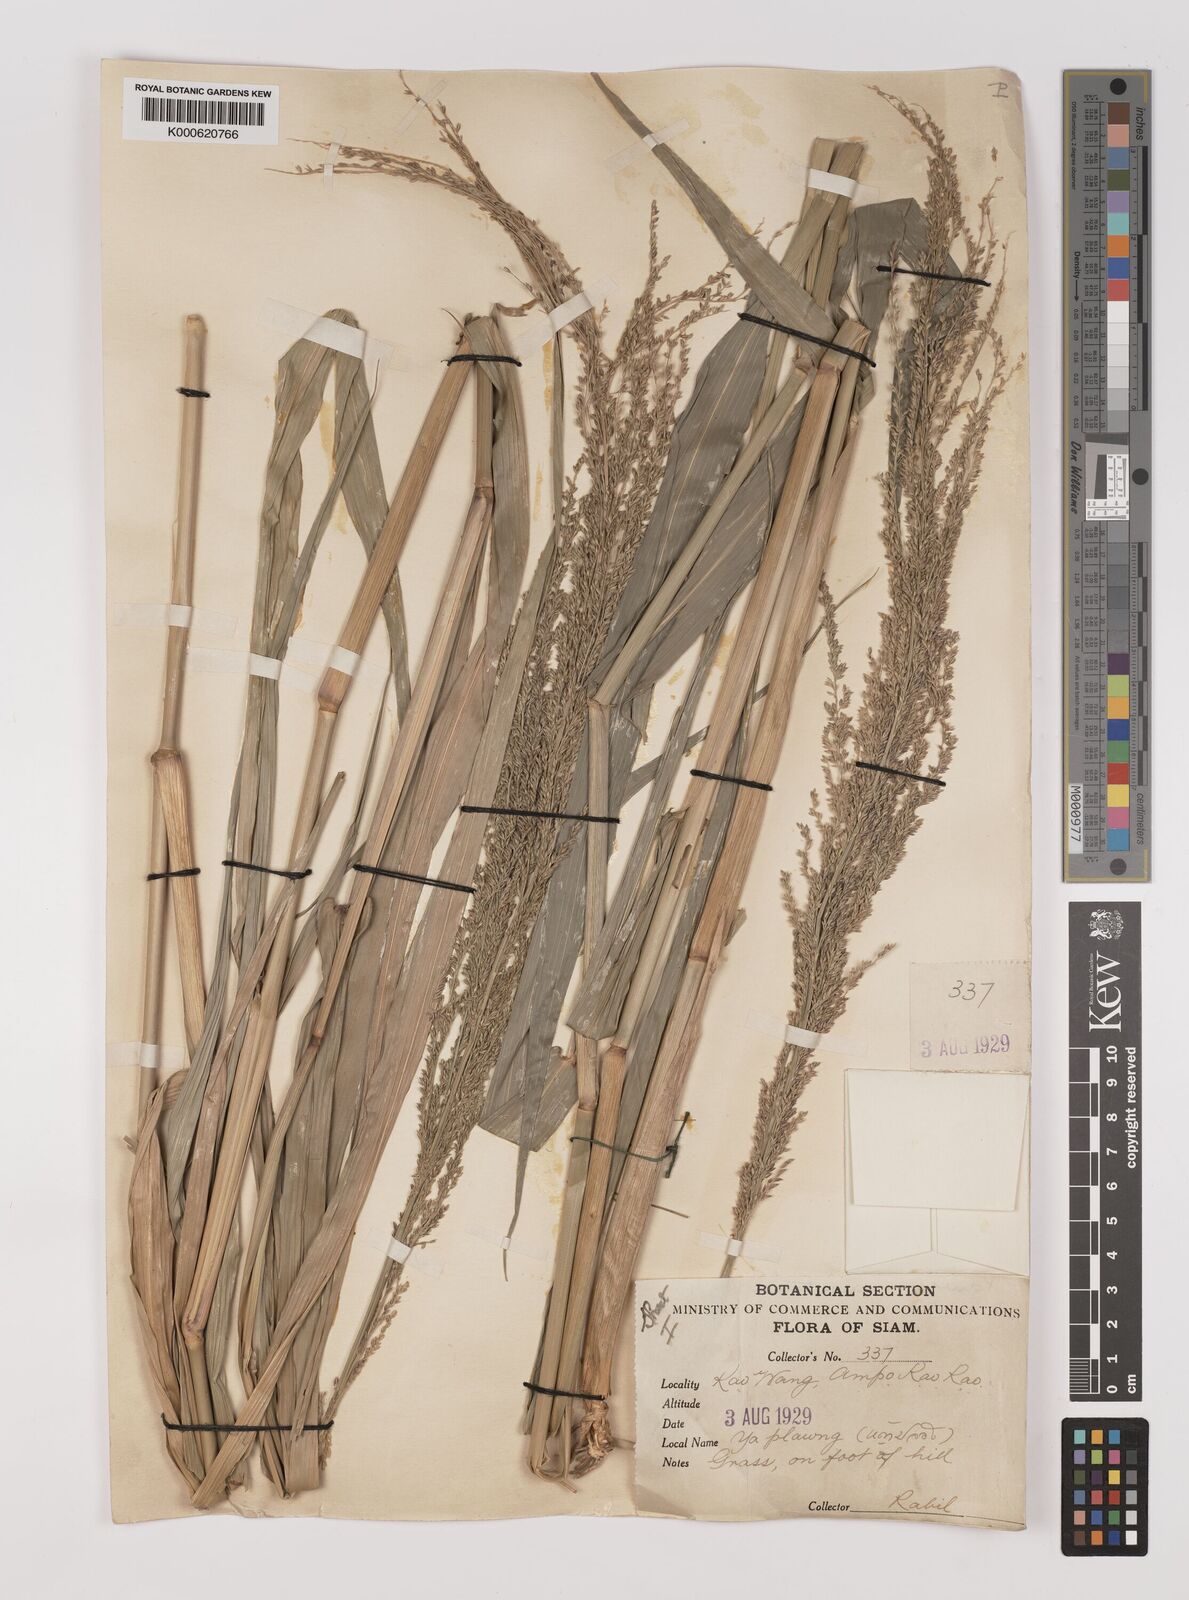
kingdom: Plantae
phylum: Tracheophyta
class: Liliopsida
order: Poales
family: Poaceae
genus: Hymenachne
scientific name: Hymenachne aurita
